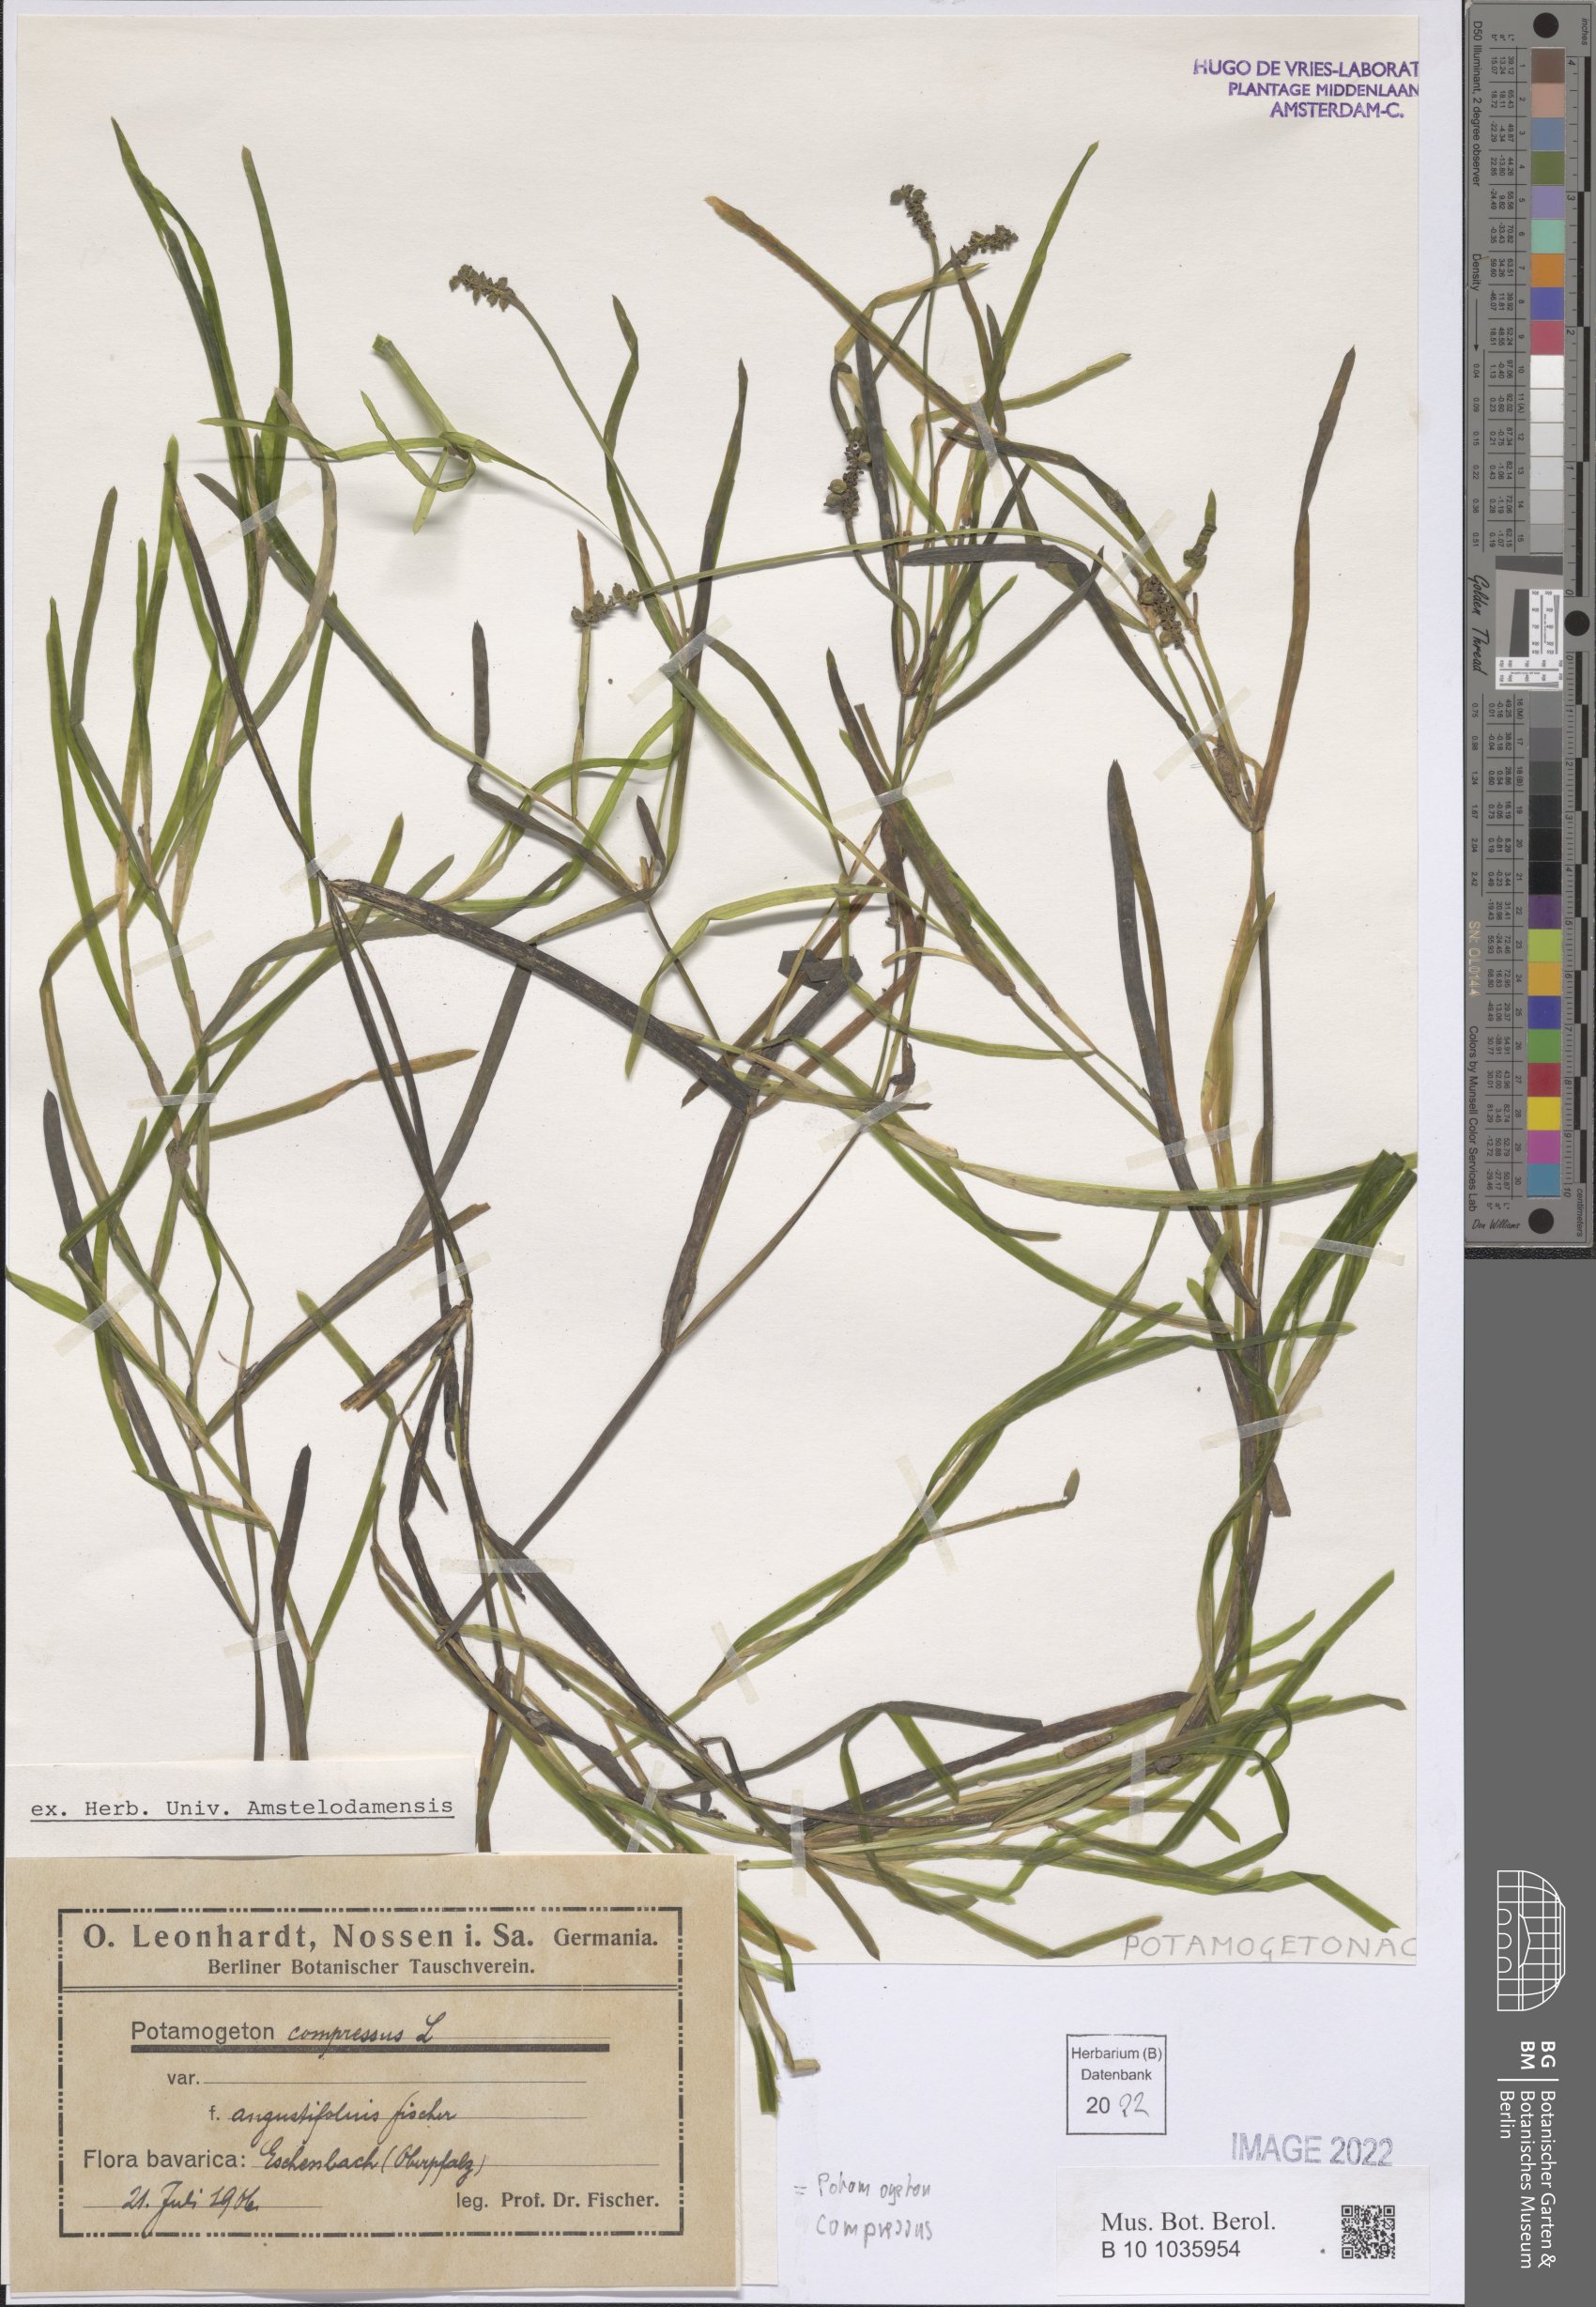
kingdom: Plantae
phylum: Tracheophyta
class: Liliopsida
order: Alismatales
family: Potamogetonaceae
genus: Potamogeton
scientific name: Potamogeton compressus
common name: Grass-wrack pondweed
